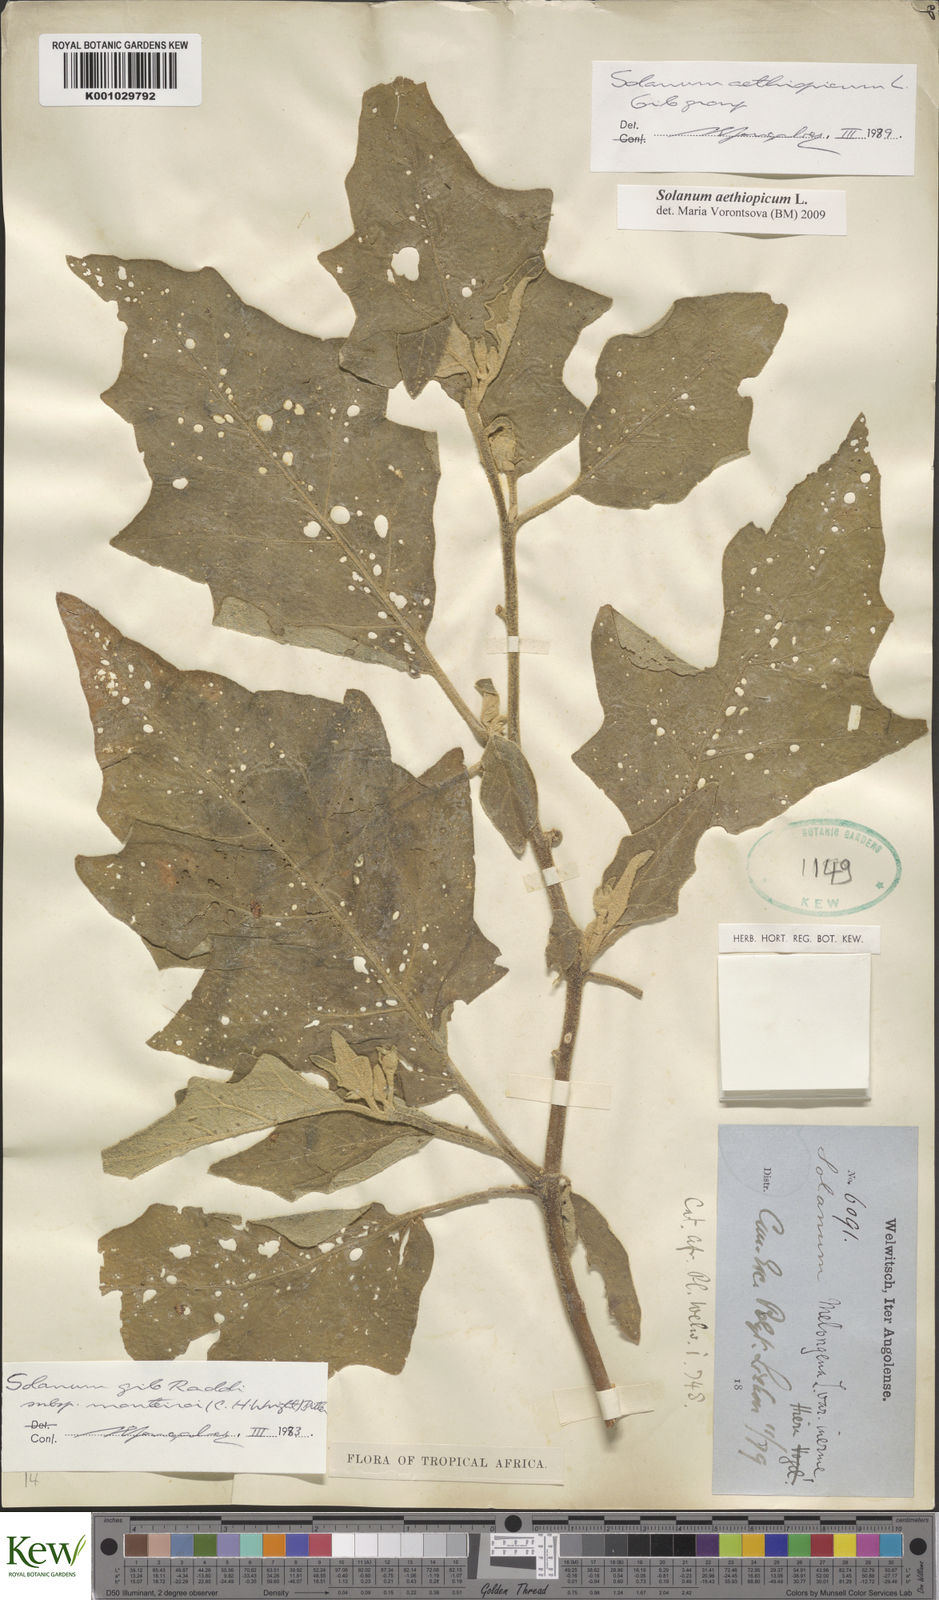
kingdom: Plantae
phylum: Tracheophyta
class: Magnoliopsida
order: Solanales
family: Solanaceae
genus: Solanum
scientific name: Solanum aethiopicum
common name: Gilo
